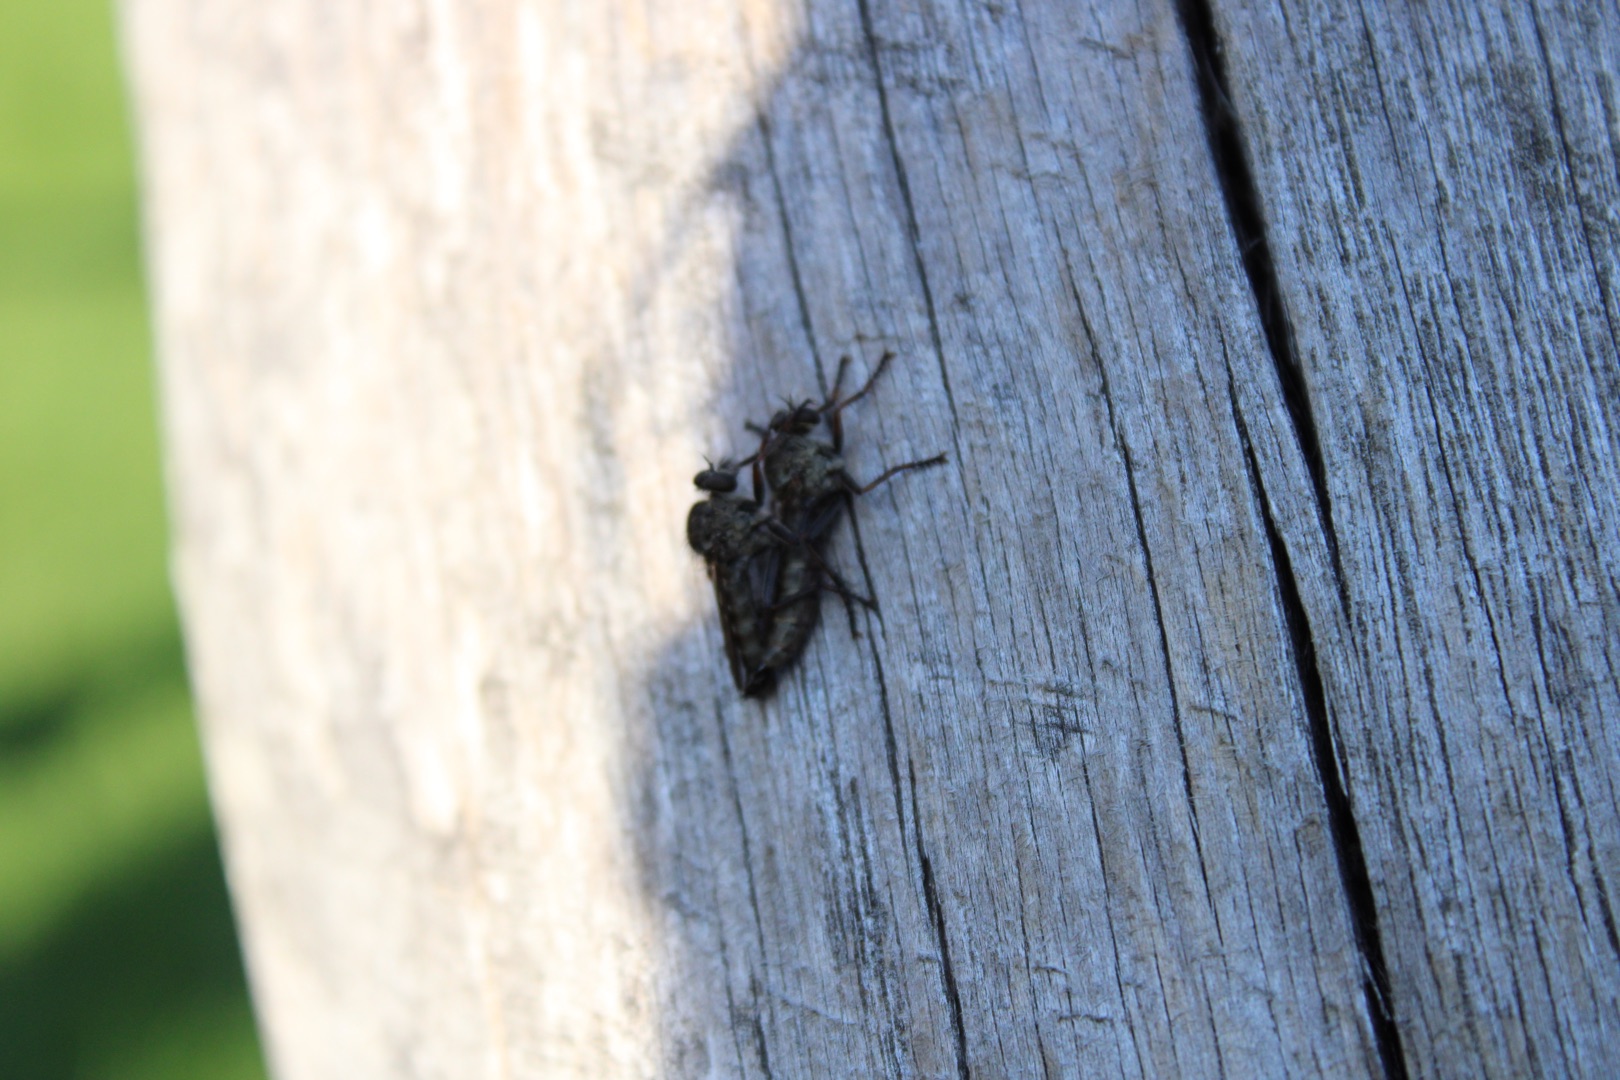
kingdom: Animalia
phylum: Arthropoda
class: Insecta
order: Diptera
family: Asilidae
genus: Machimus
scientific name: Machimus atricapillus
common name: Sort hårrovflue
